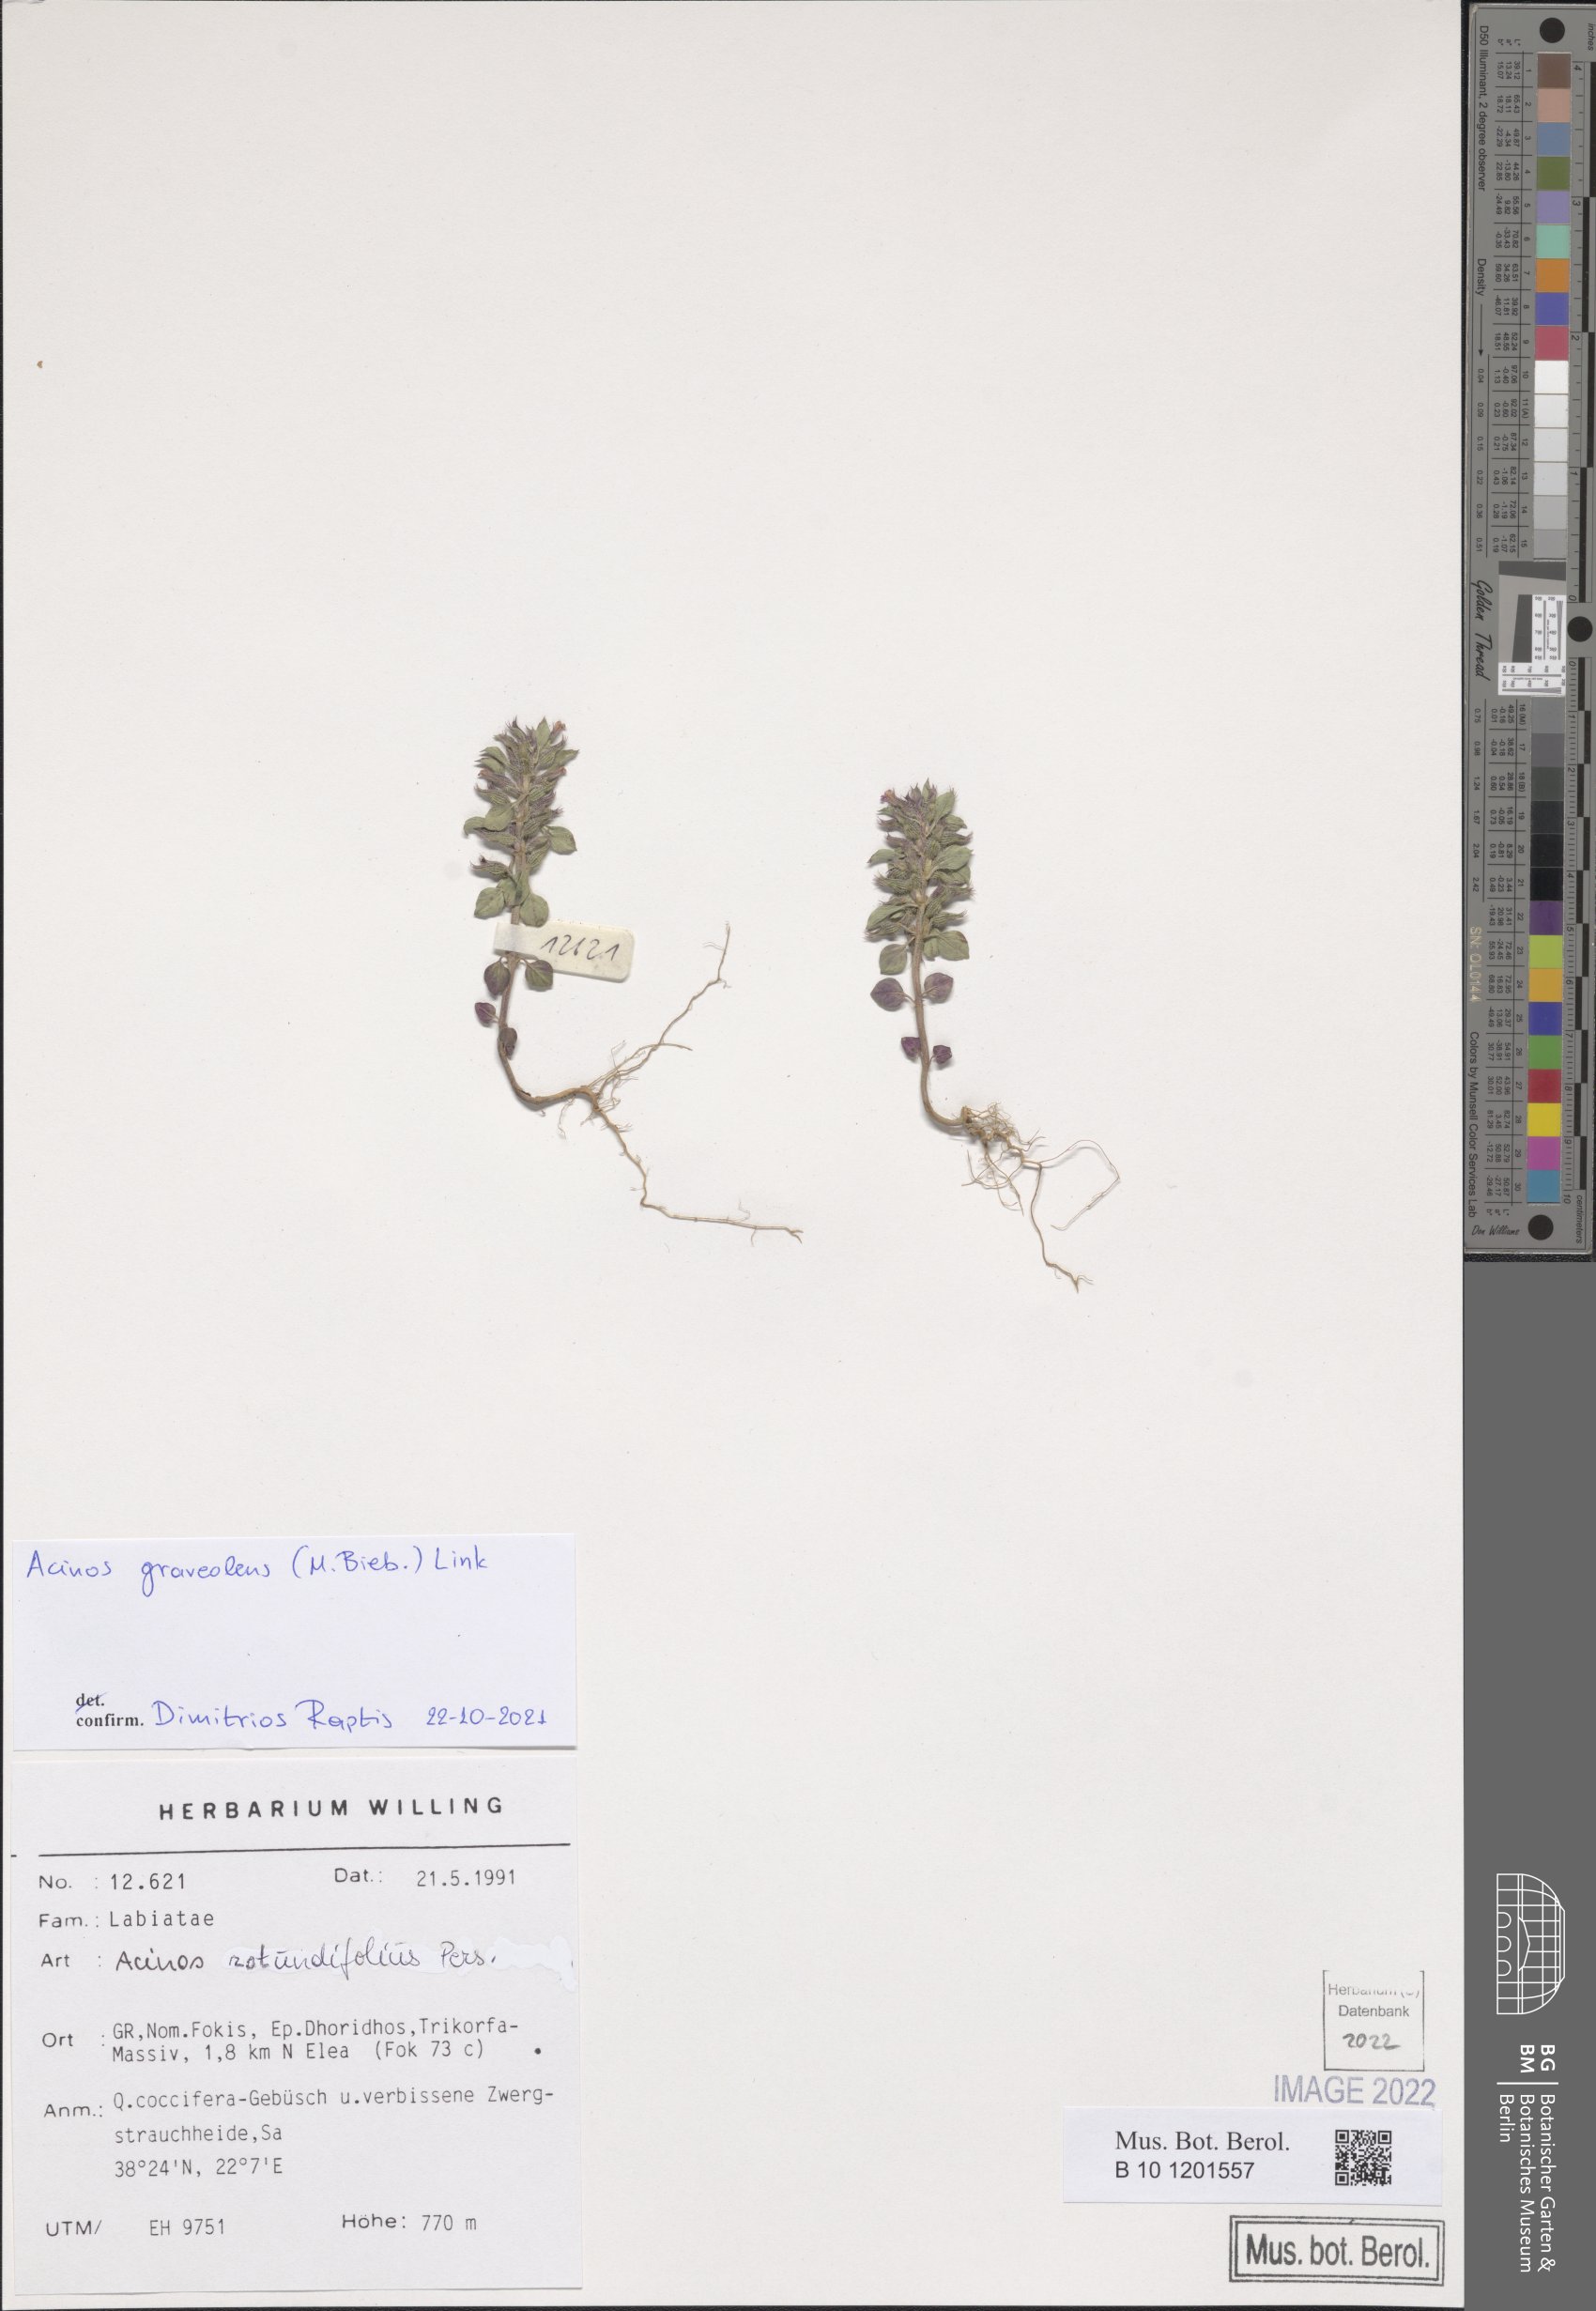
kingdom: Plantae
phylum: Tracheophyta
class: Magnoliopsida
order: Lamiales
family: Lamiaceae
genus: Clinopodium
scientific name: Clinopodium graveolens
